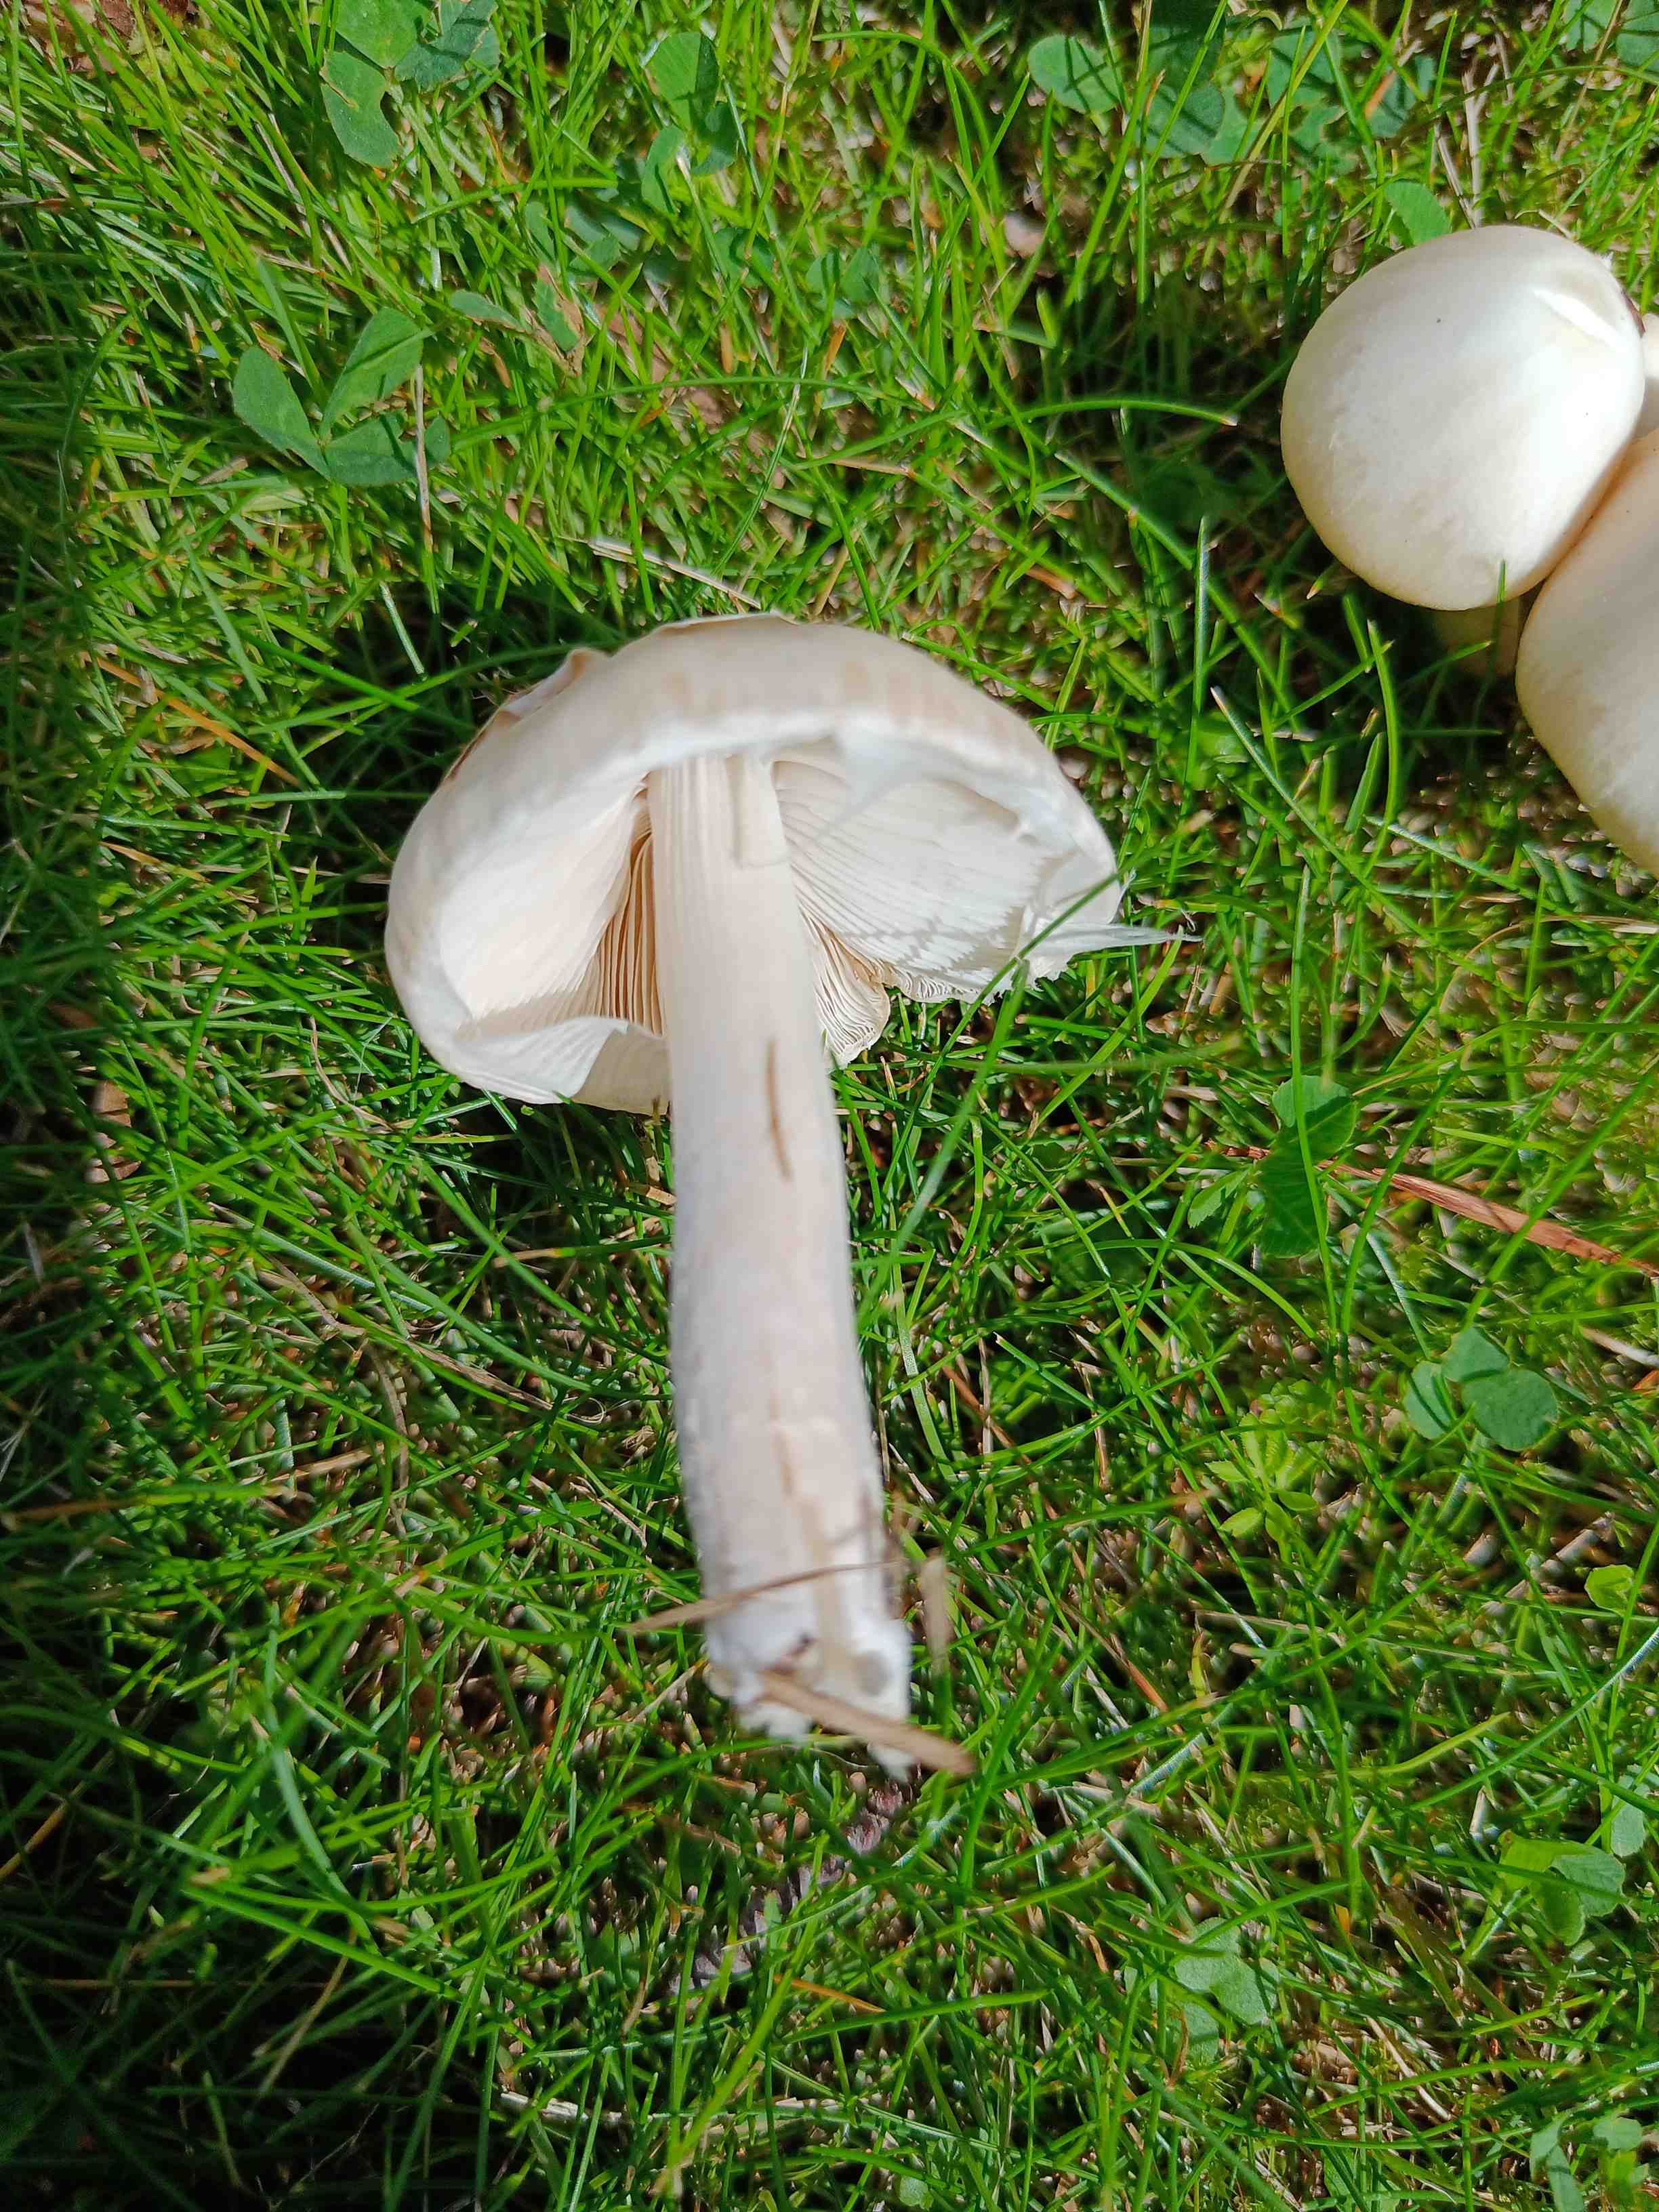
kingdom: Fungi
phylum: Basidiomycota
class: Agaricomycetes
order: Agaricales
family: Psathyrellaceae
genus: Candolleomyces
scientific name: Candolleomyces
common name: mørkhat
